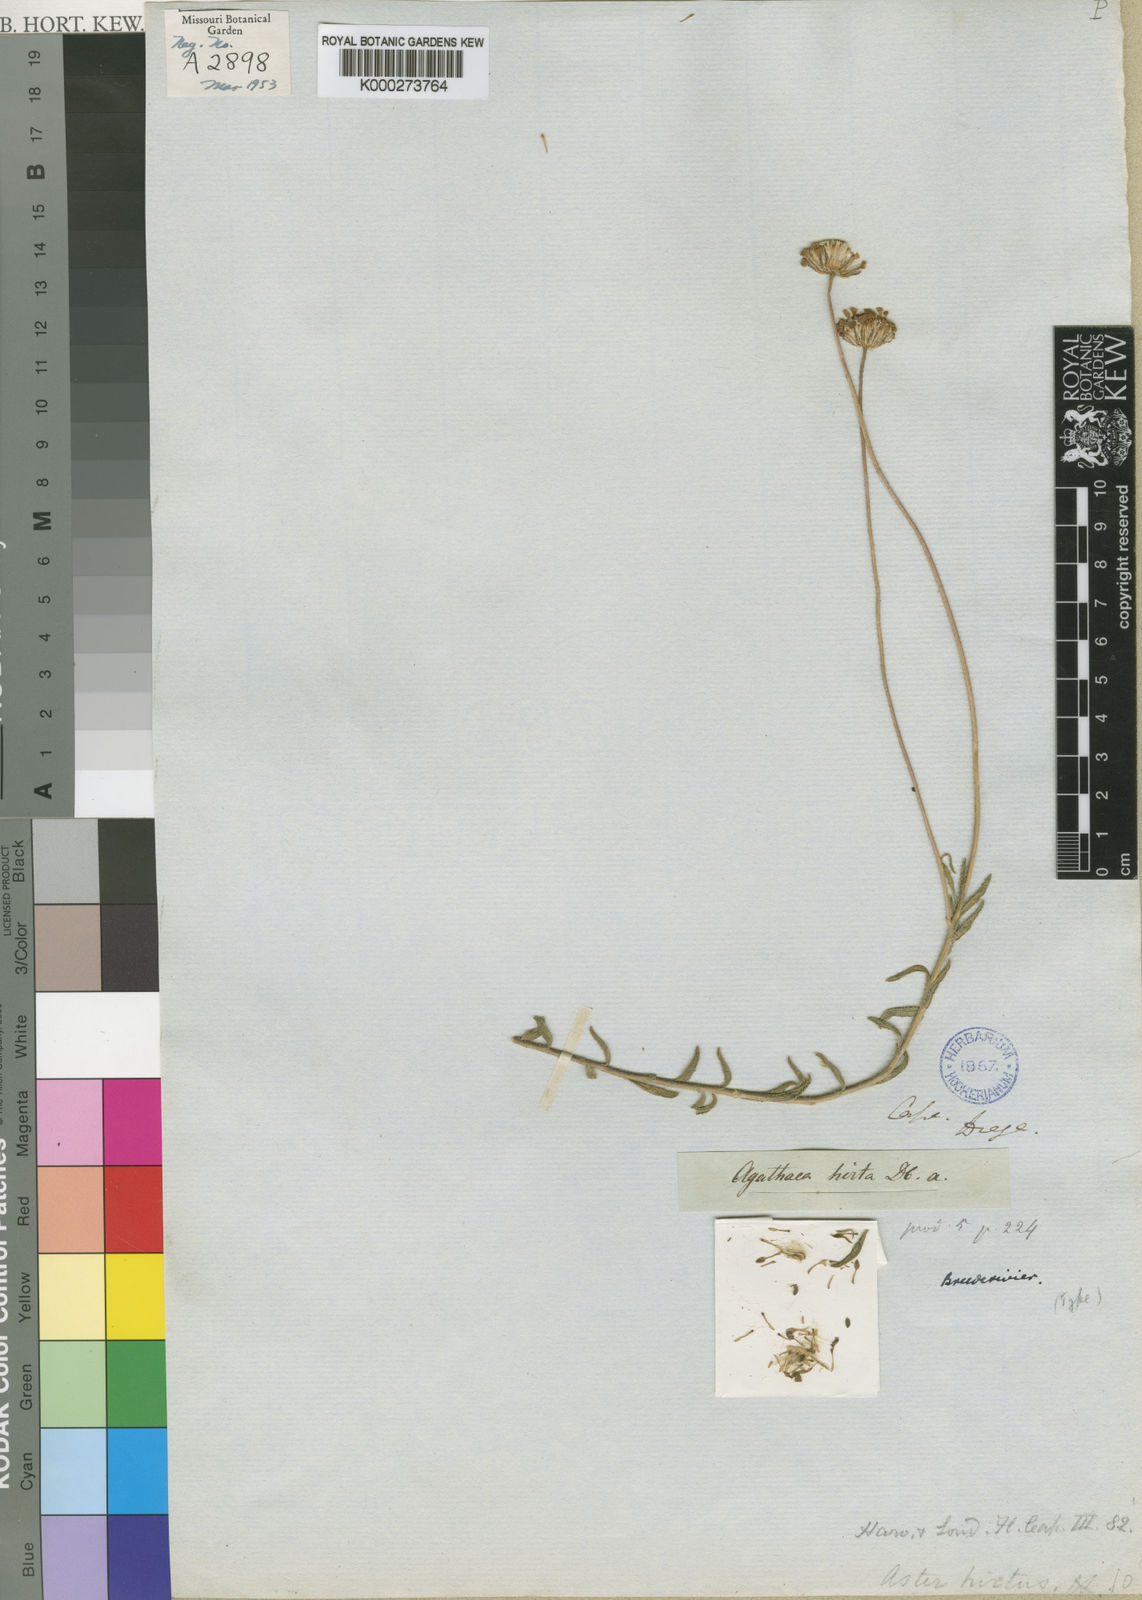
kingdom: Plantae
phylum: Tracheophyta
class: Magnoliopsida
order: Asterales
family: Asteraceae
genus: Felicia
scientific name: Felicia aculeata
